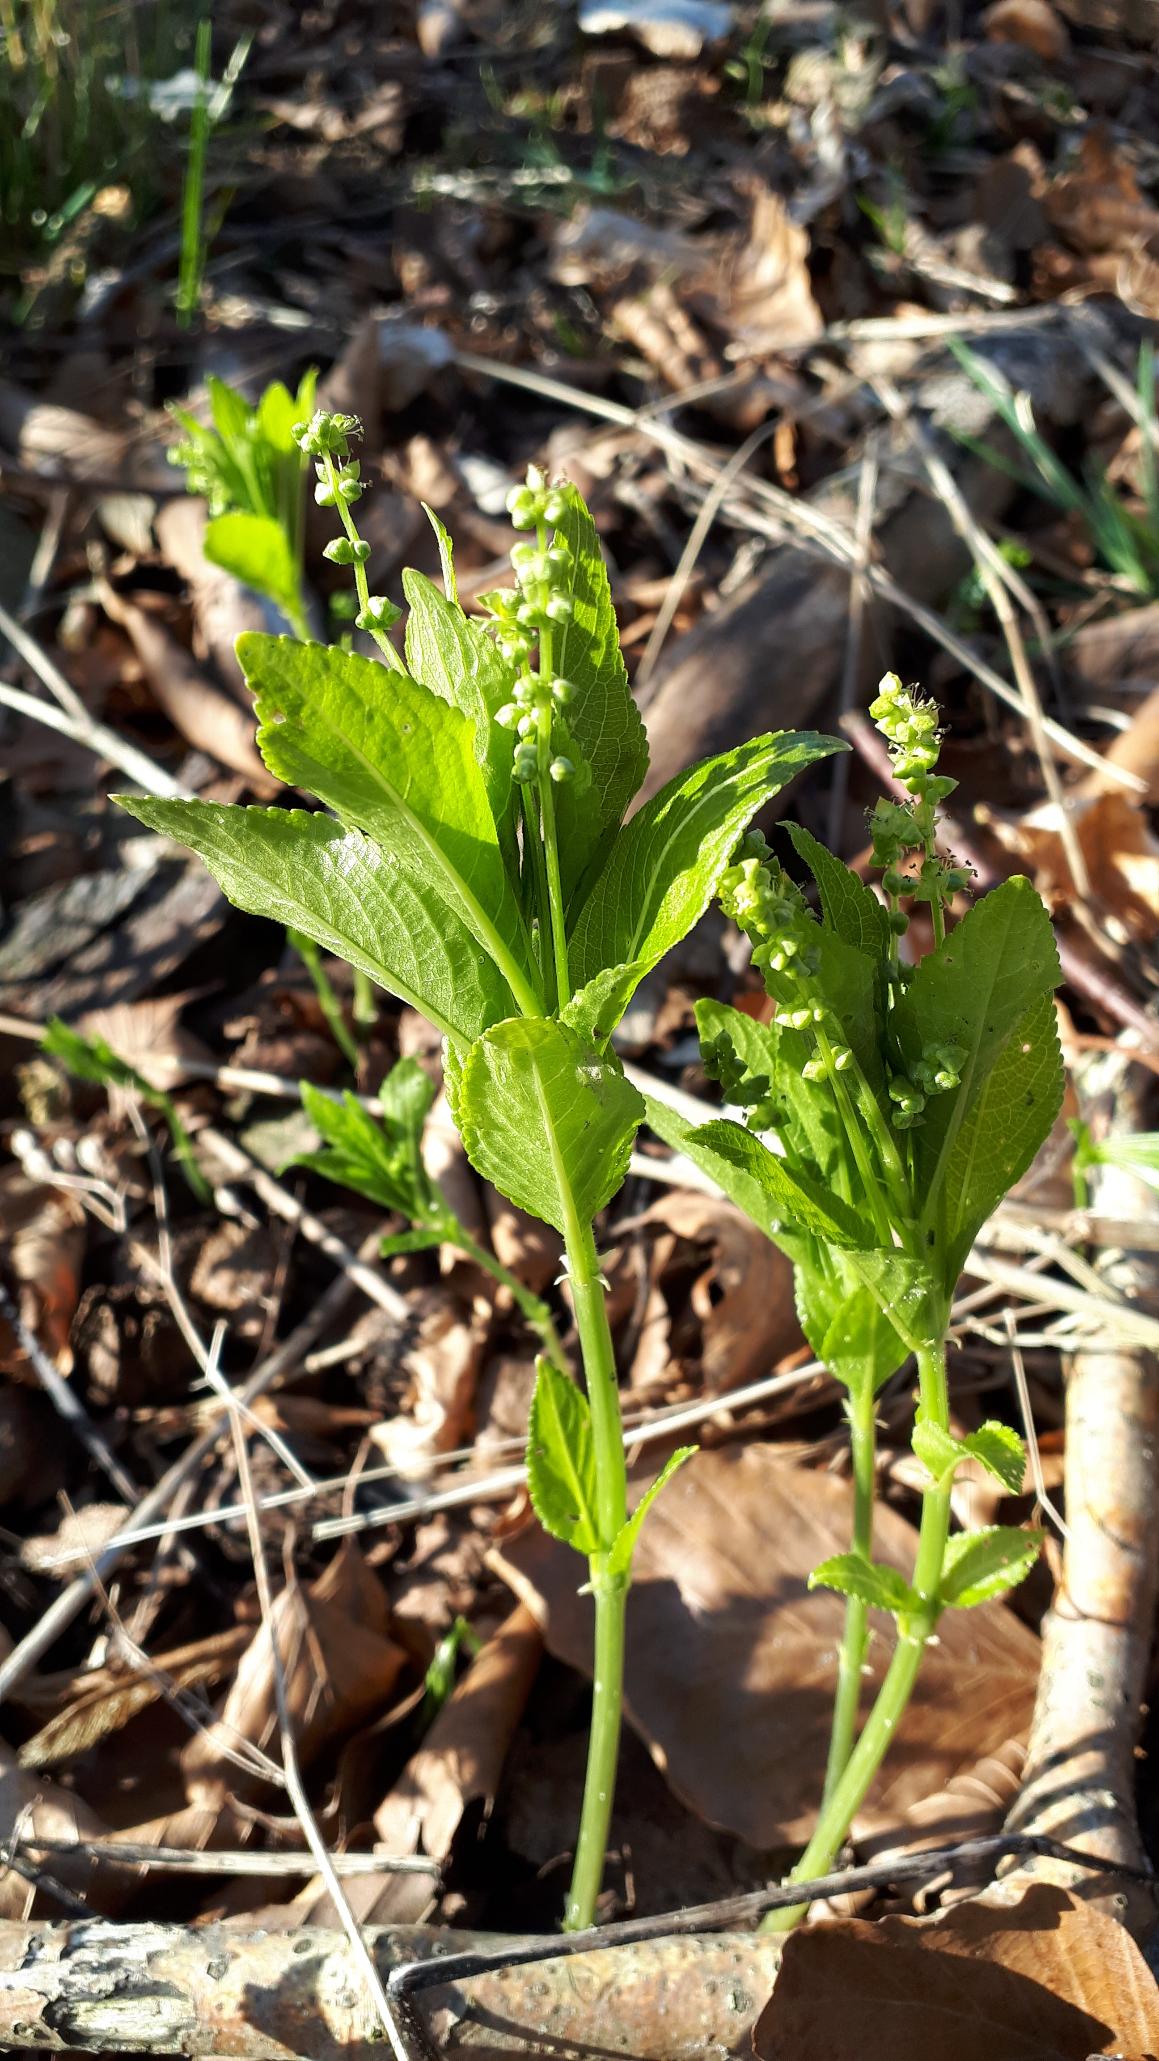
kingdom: Plantae
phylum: Tracheophyta
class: Magnoliopsida
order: Malpighiales
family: Euphorbiaceae
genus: Mercurialis
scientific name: Mercurialis perennis
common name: Almindelig bingelurt
